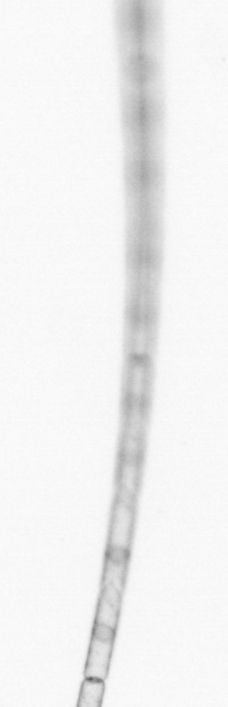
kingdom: Chromista
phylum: Ochrophyta
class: Bacillariophyceae
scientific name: Bacillariophyceae
